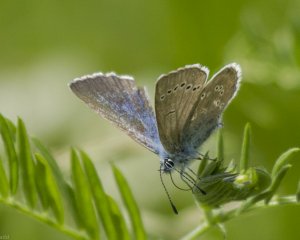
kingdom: Animalia
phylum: Arthropoda
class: Insecta
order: Lepidoptera
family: Lycaenidae
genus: Glaucopsyche
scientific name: Glaucopsyche lygdamus
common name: Silvery Blue
